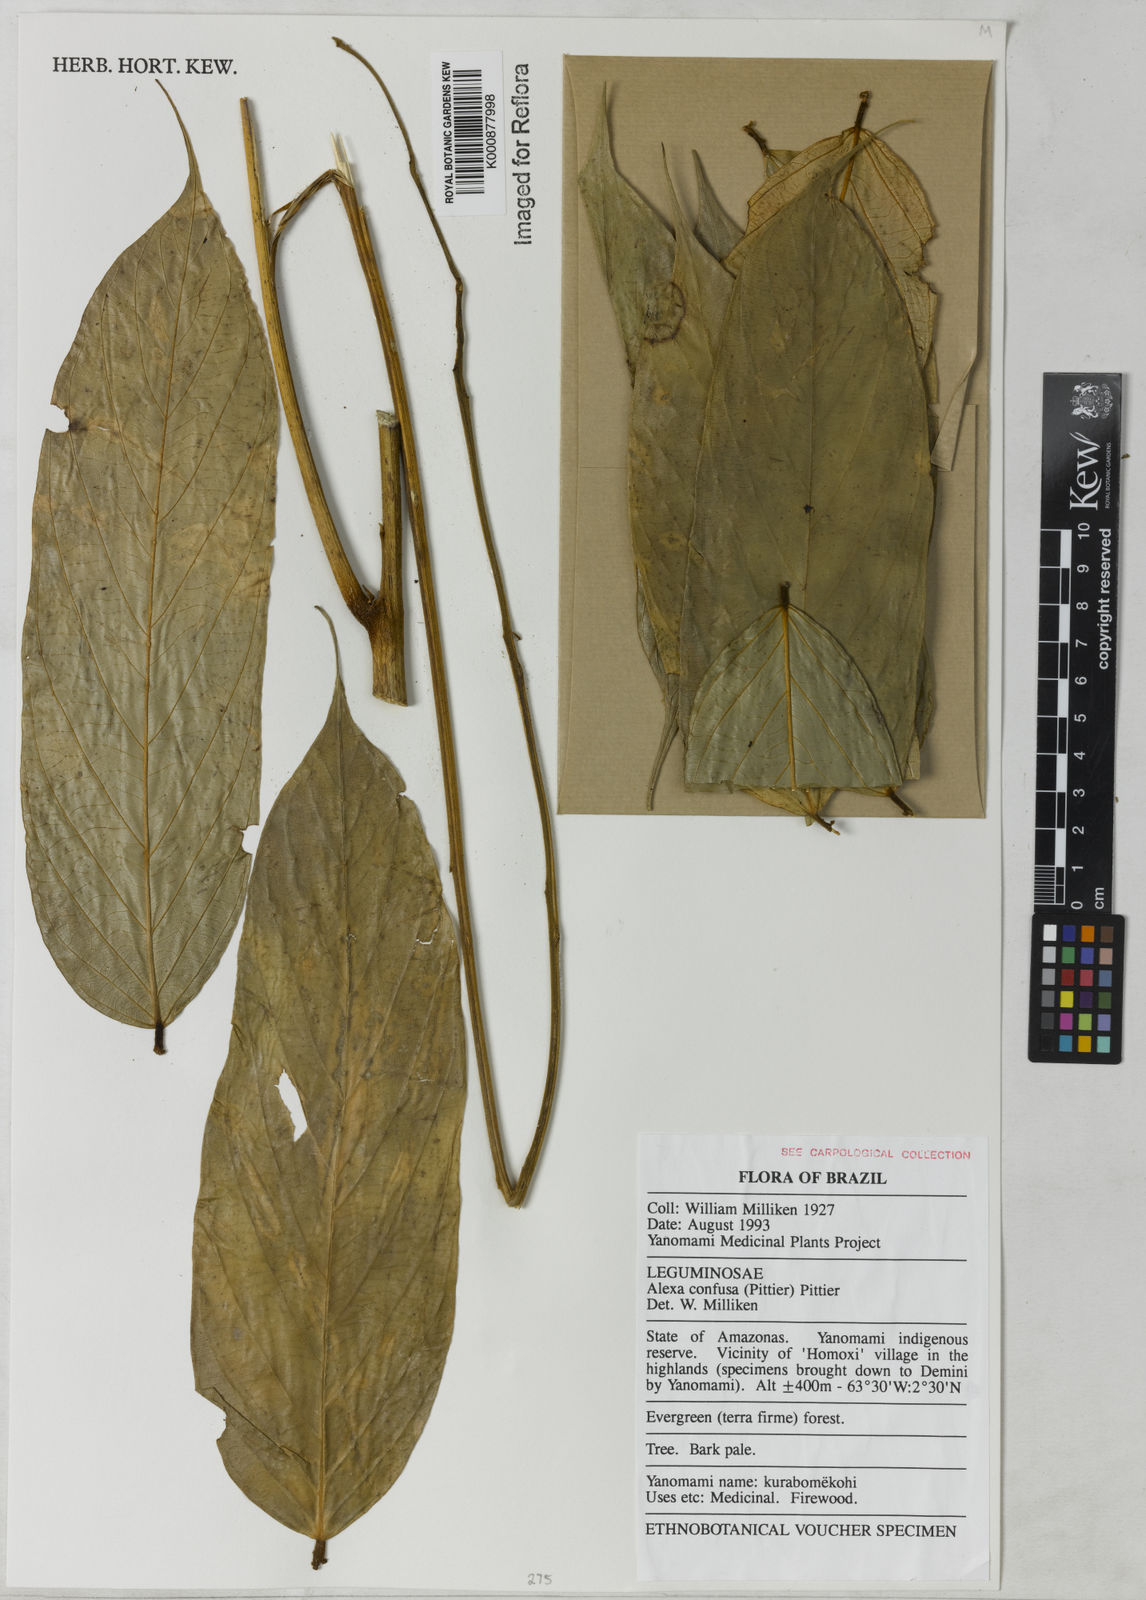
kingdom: Plantae
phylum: Tracheophyta
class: Magnoliopsida
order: Fabales
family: Fabaceae
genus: Alexa
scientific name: Alexa confusa
